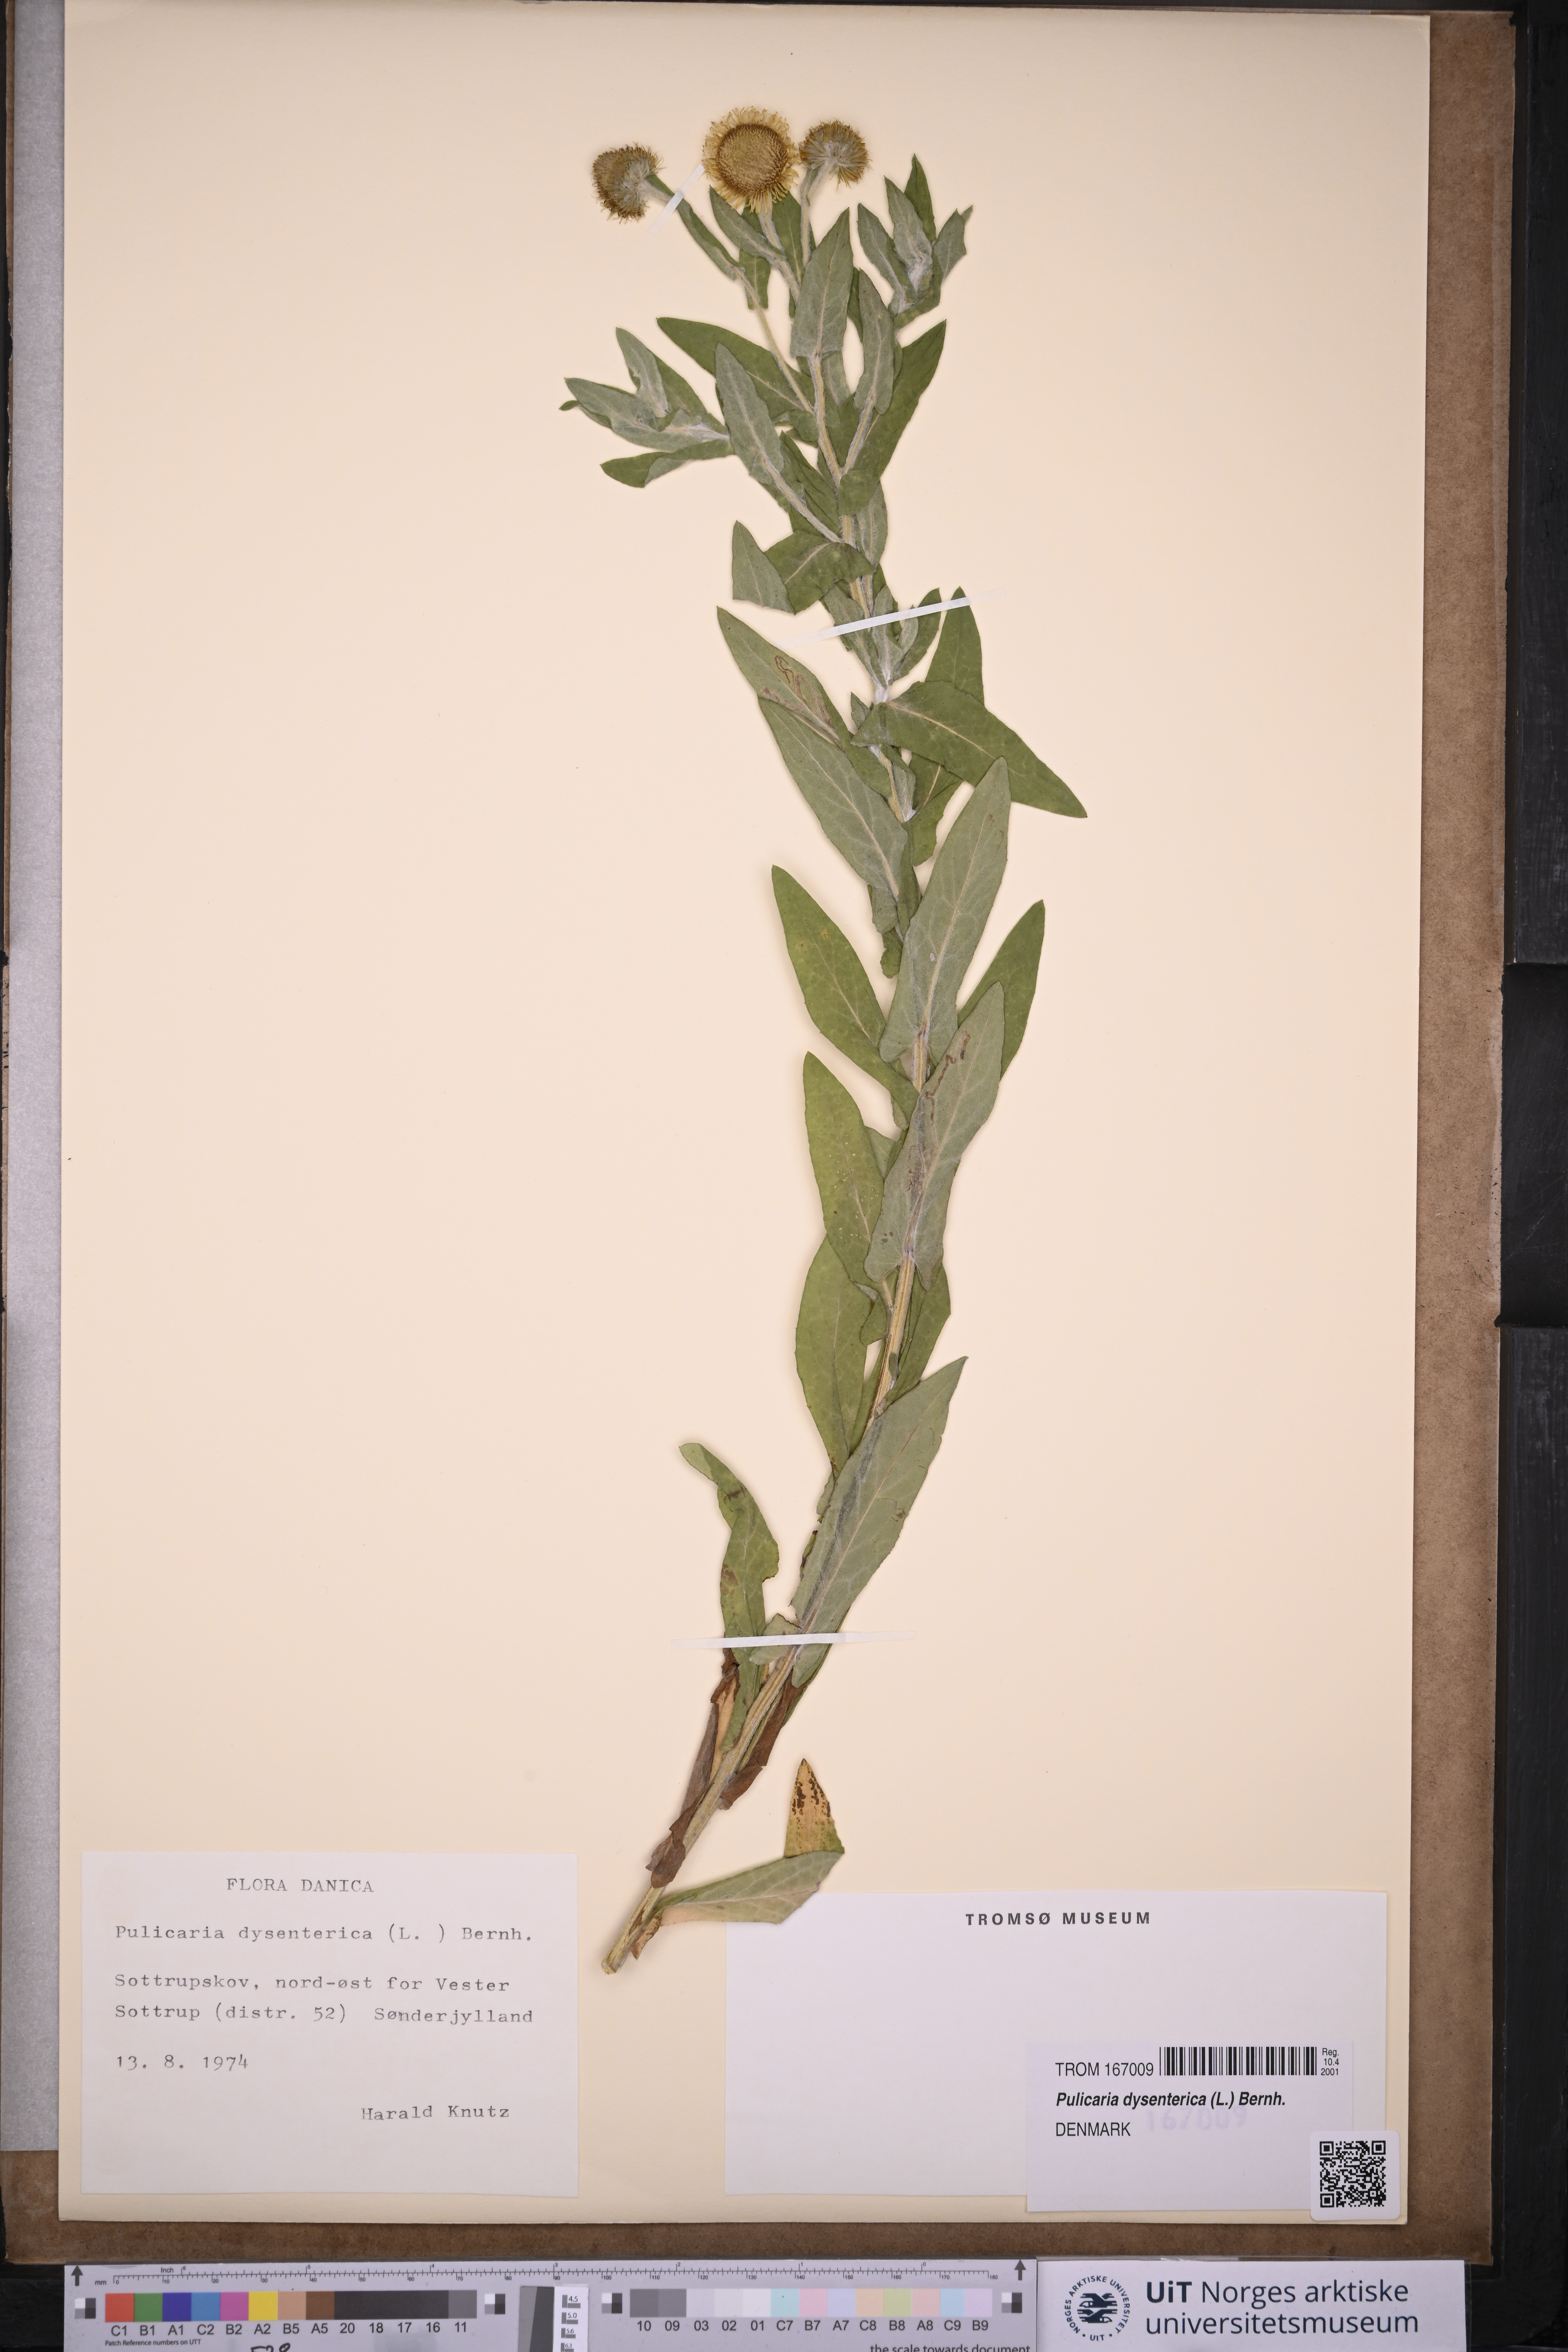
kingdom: Plantae
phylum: Tracheophyta
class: Magnoliopsida
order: Asterales
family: Asteraceae
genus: Pulicaria
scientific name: Pulicaria dysenterica
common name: Common fleabane
